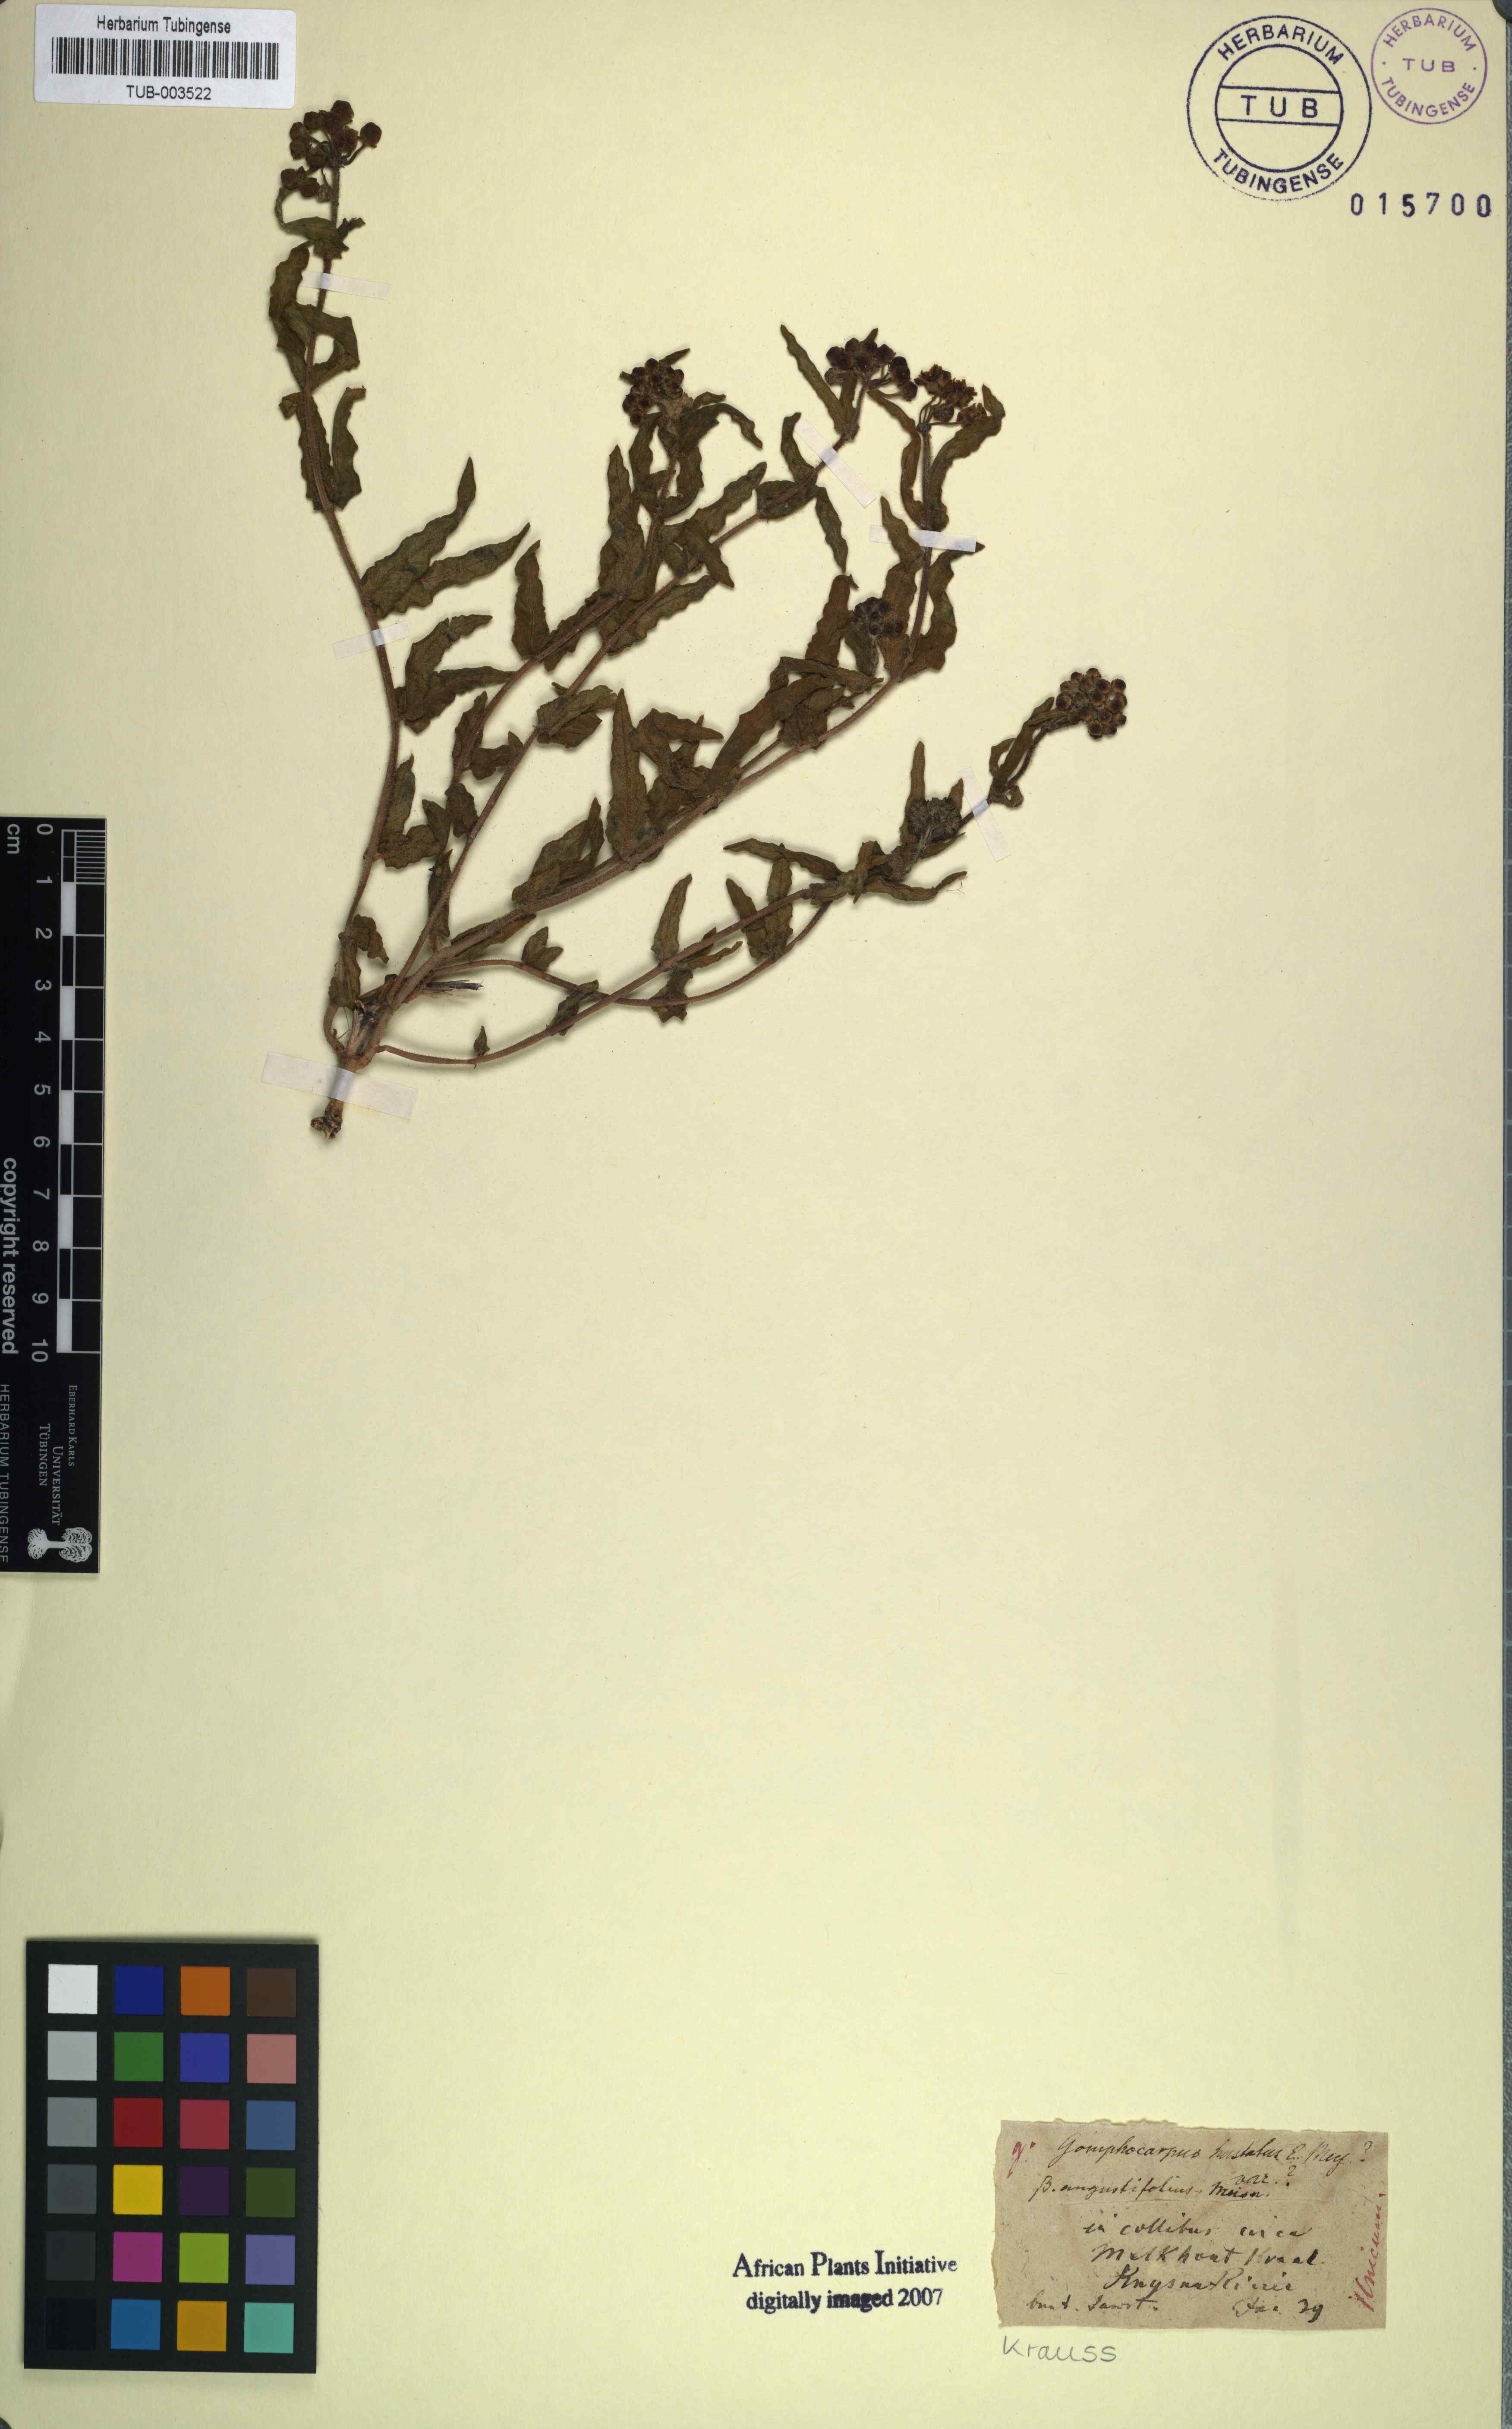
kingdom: Plantae
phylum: Tracheophyta
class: Magnoliopsida
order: Gentianales
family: Apocynaceae
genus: Asclepias
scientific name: Asclepias flanaganii
